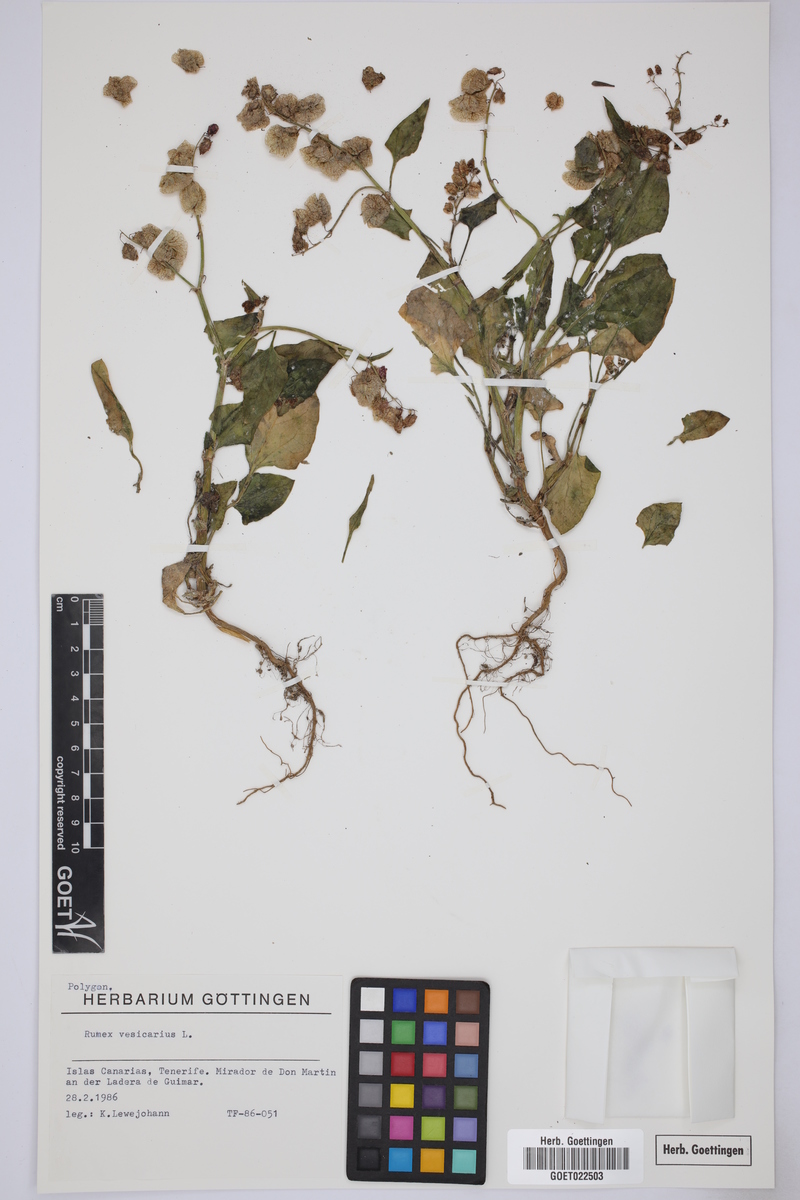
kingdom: Plantae
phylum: Tracheophyta
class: Magnoliopsida
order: Caryophyllales
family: Polygonaceae
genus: Rumex
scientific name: Rumex vesicarius
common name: Bladder dock
